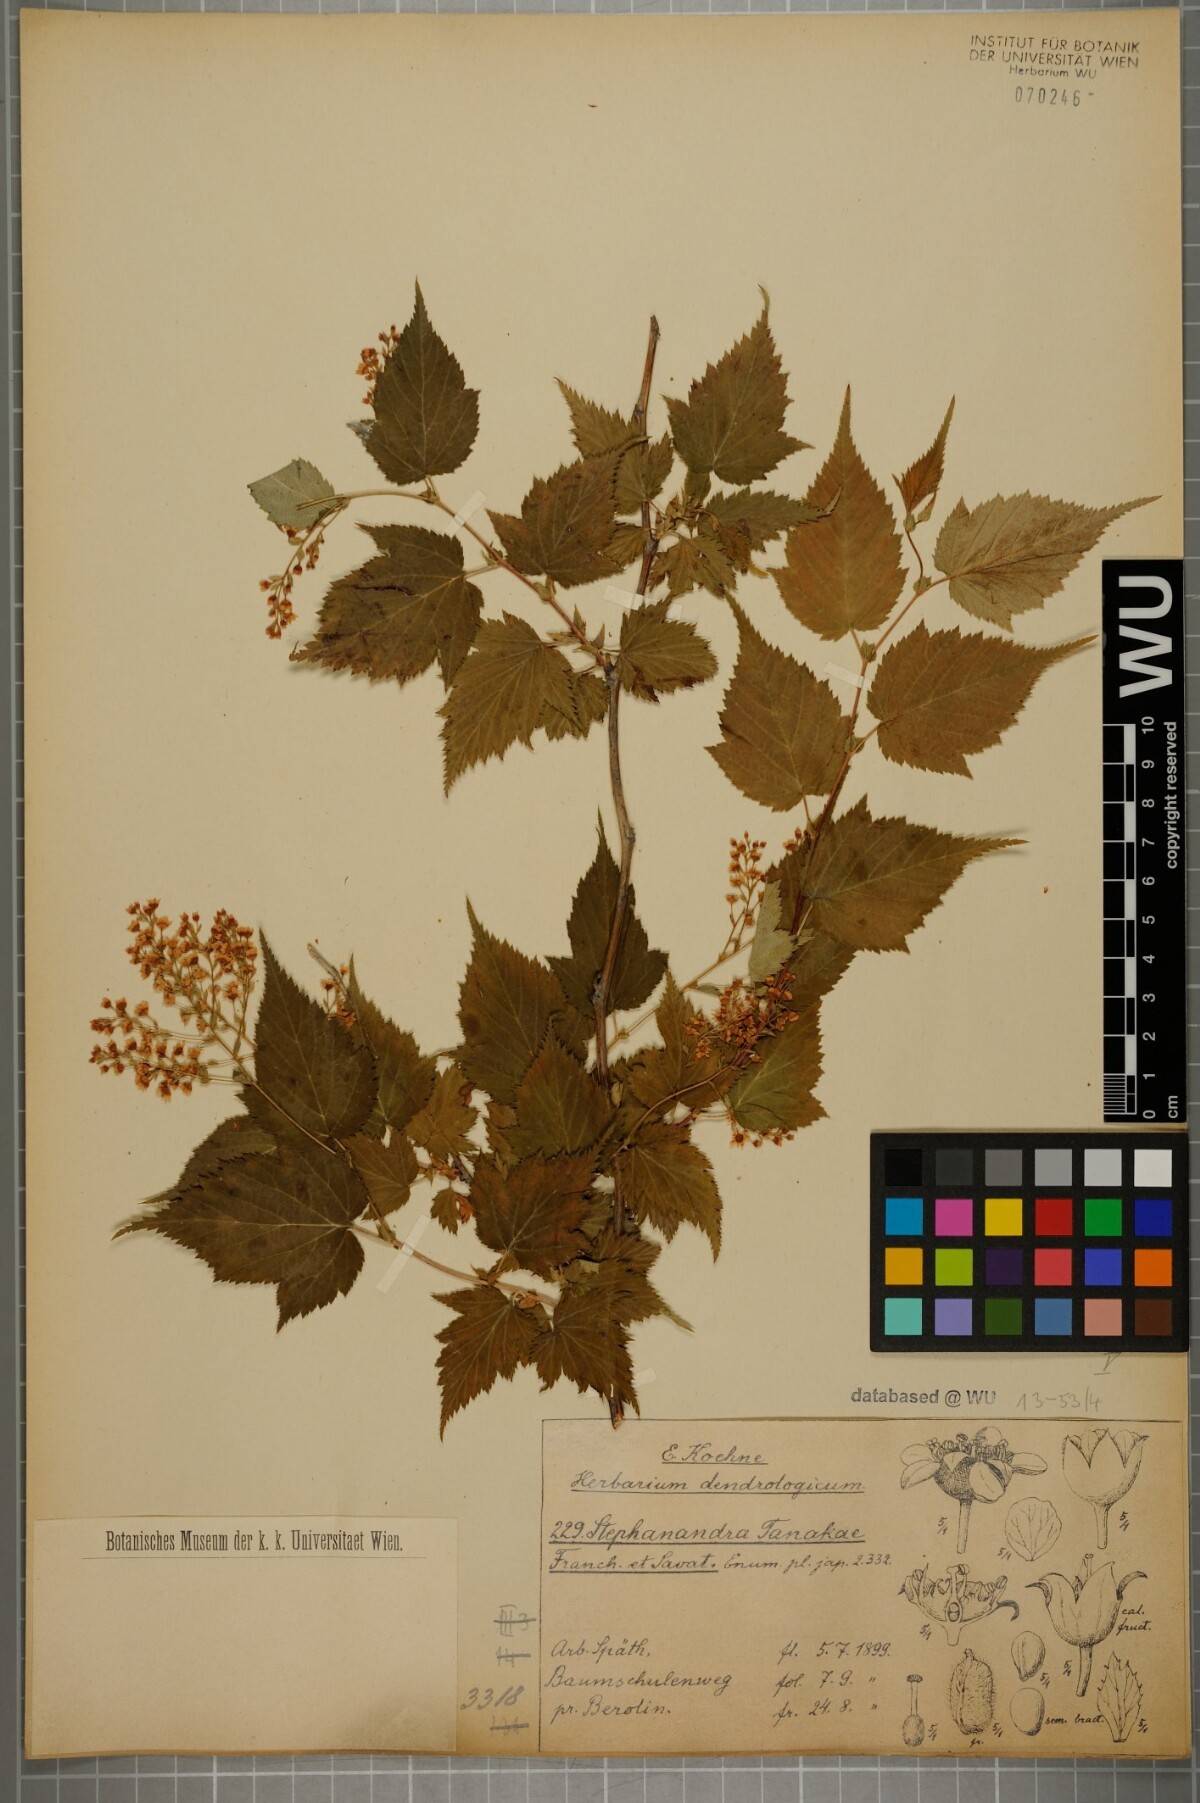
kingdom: Plantae
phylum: Tracheophyta
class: Magnoliopsida
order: Rosales
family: Rosaceae
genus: Neillia
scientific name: Neillia tanakae
